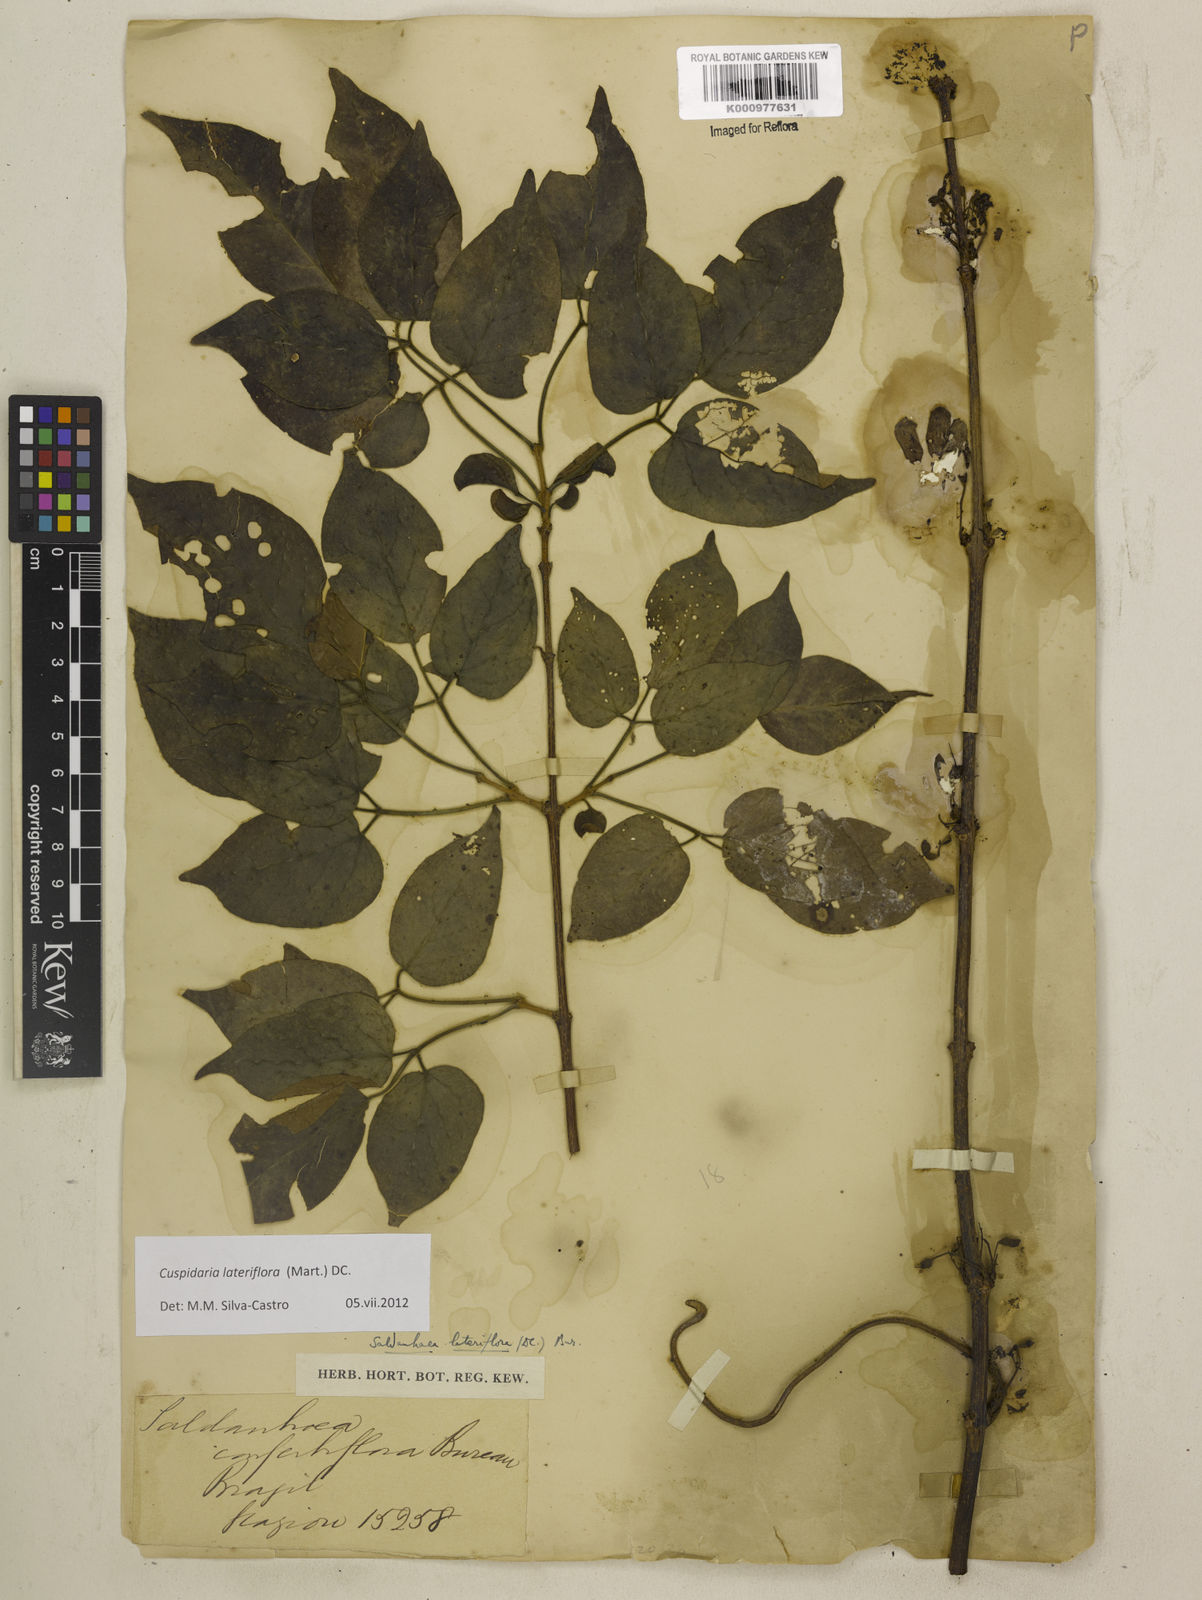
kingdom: Plantae
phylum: Tracheophyta
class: Magnoliopsida
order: Lamiales
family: Bignoniaceae
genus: Cuspidaria
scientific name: Cuspidaria lateriflora
